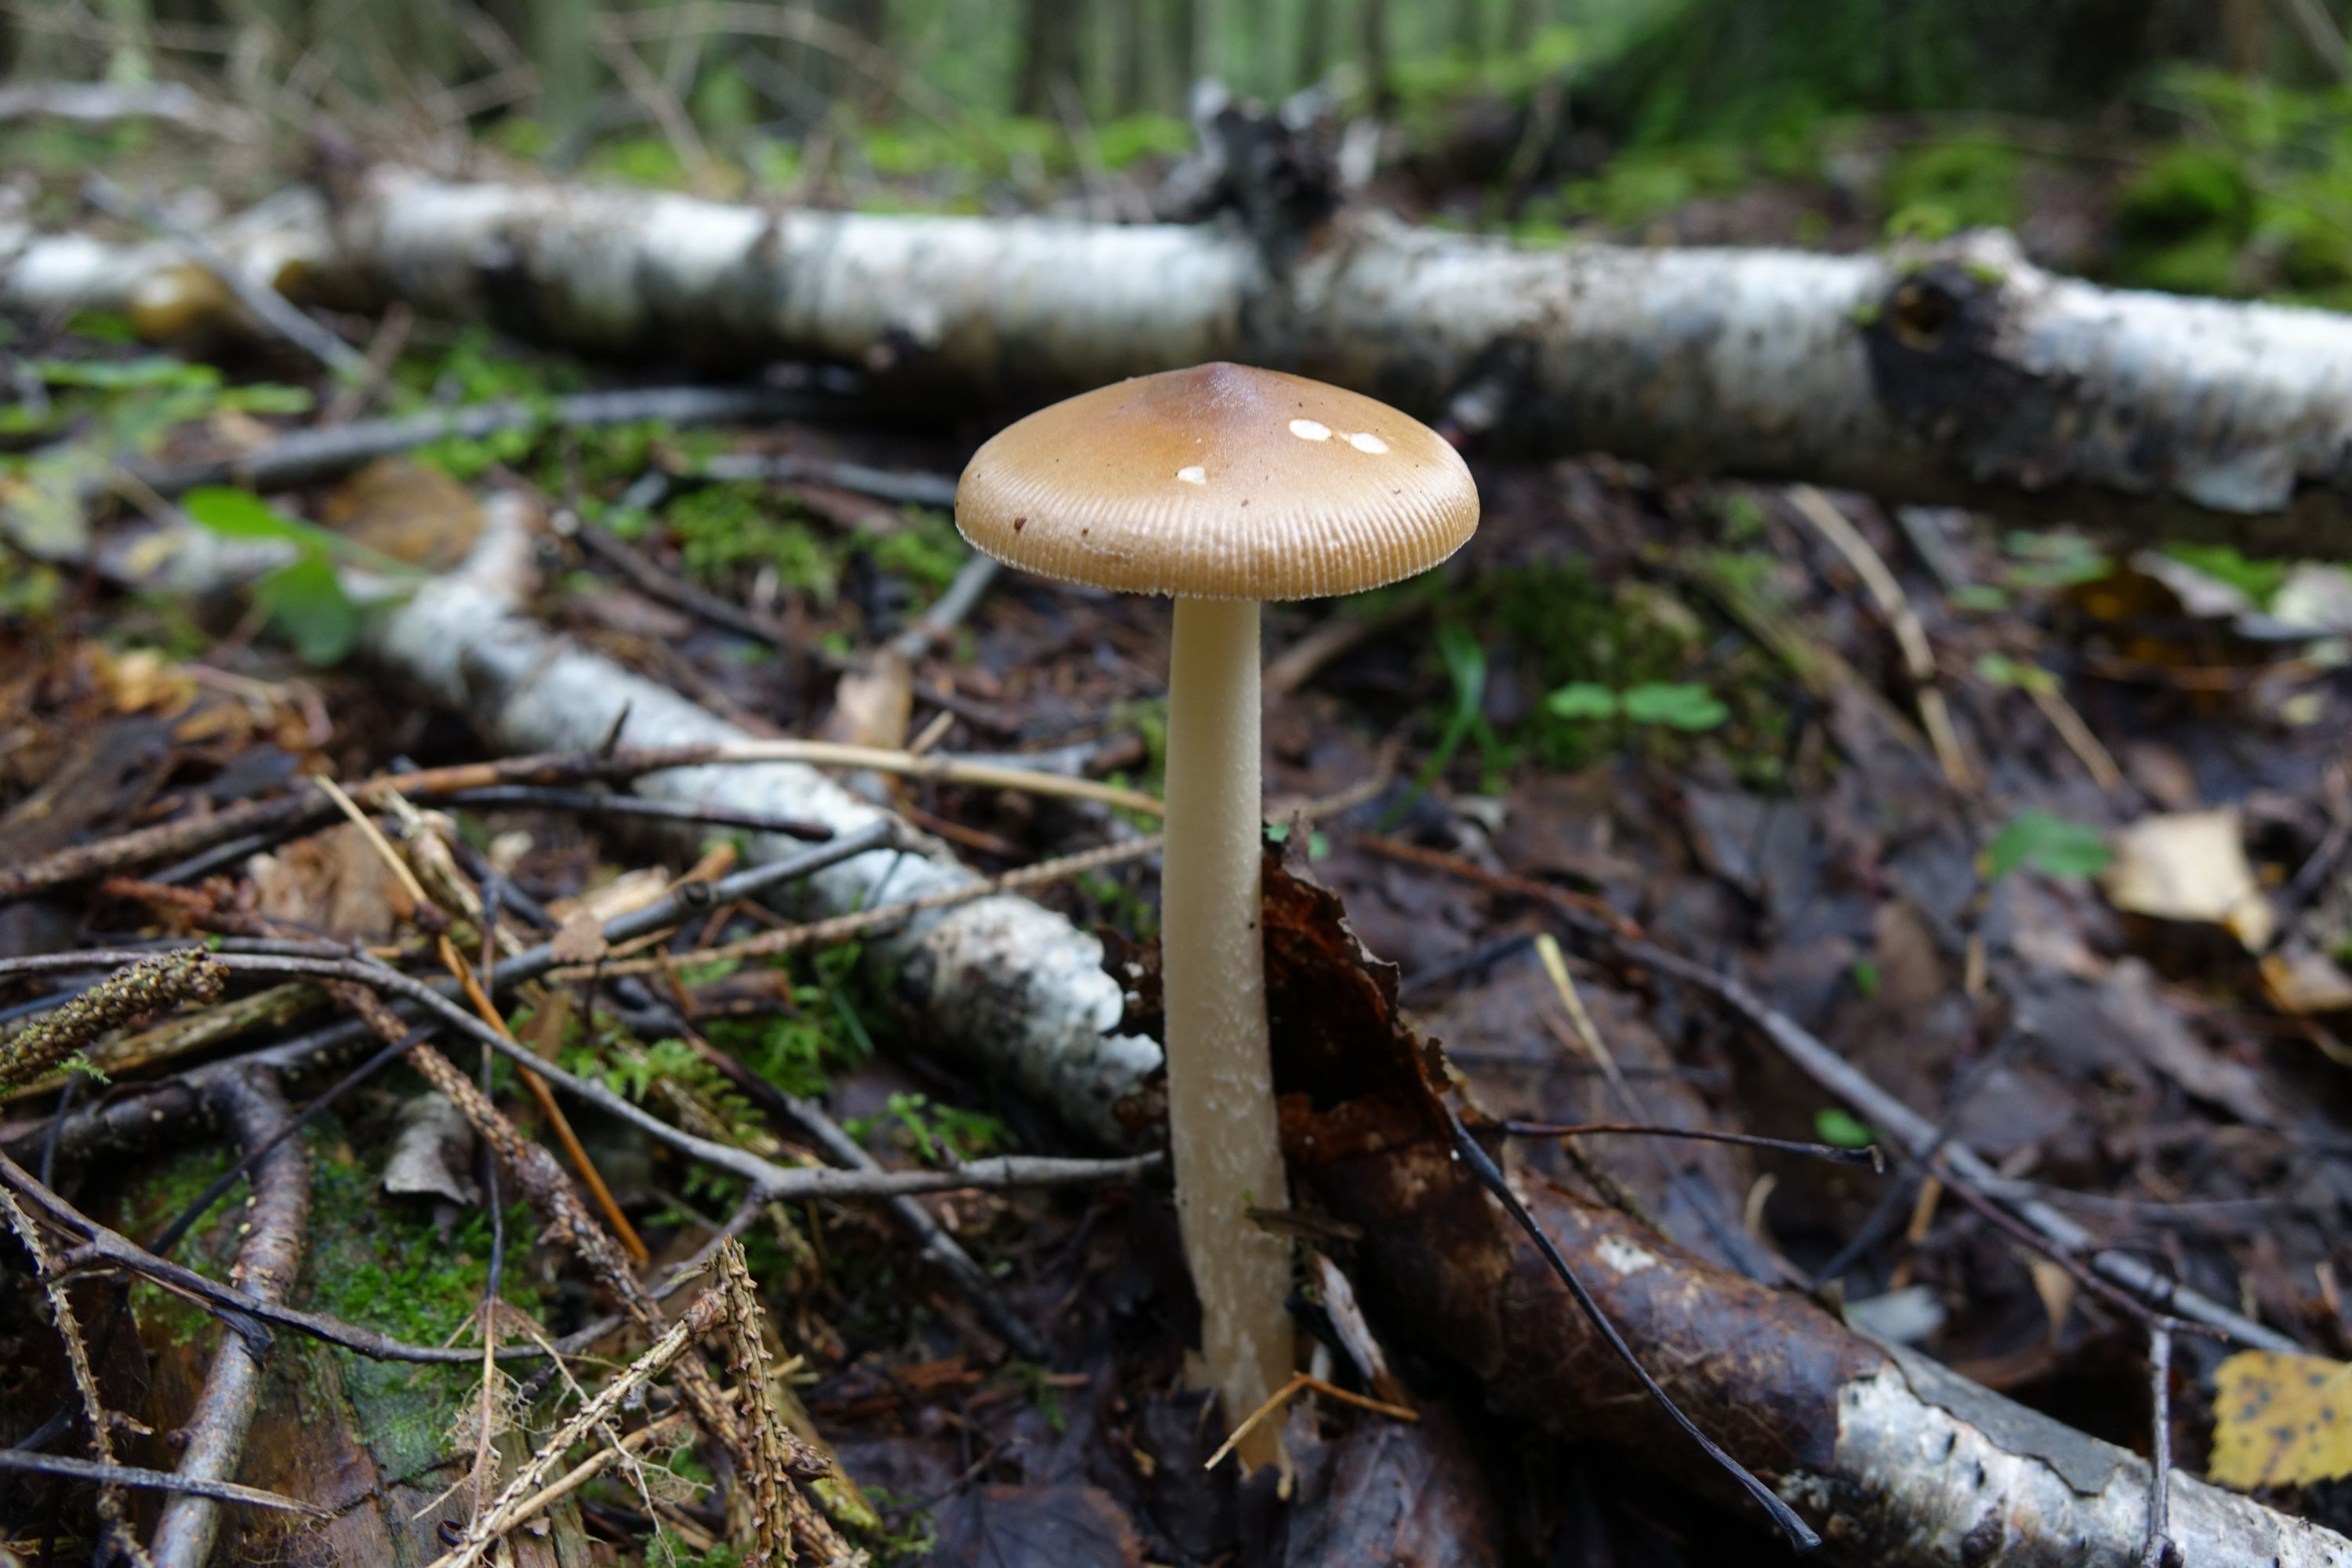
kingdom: Fungi
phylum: Basidiomycota
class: Agaricomycetes
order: Agaricales
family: Amanitaceae
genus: Amanita
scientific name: Amanita fulva
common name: Tawny grisette
